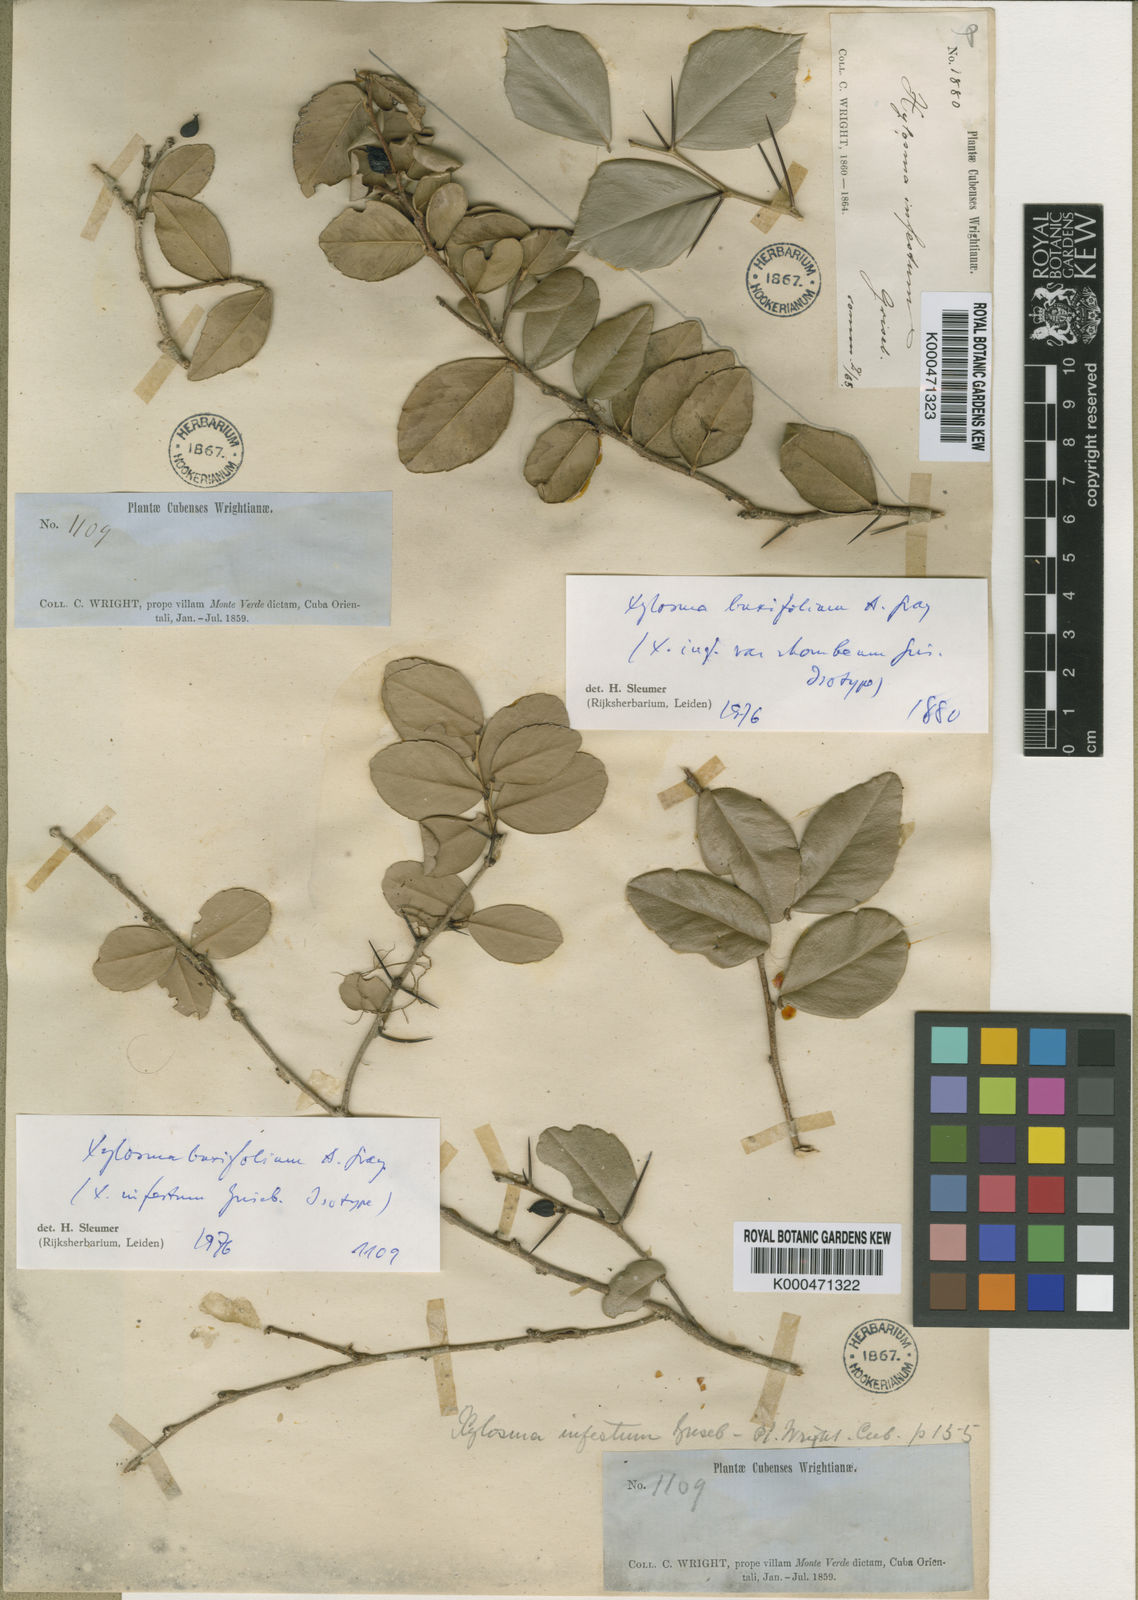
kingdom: Plantae
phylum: Tracheophyta
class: Magnoliopsida
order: Malpighiales
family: Salicaceae
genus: Xylosma
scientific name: Xylosma buxifolia
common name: Cockspur
